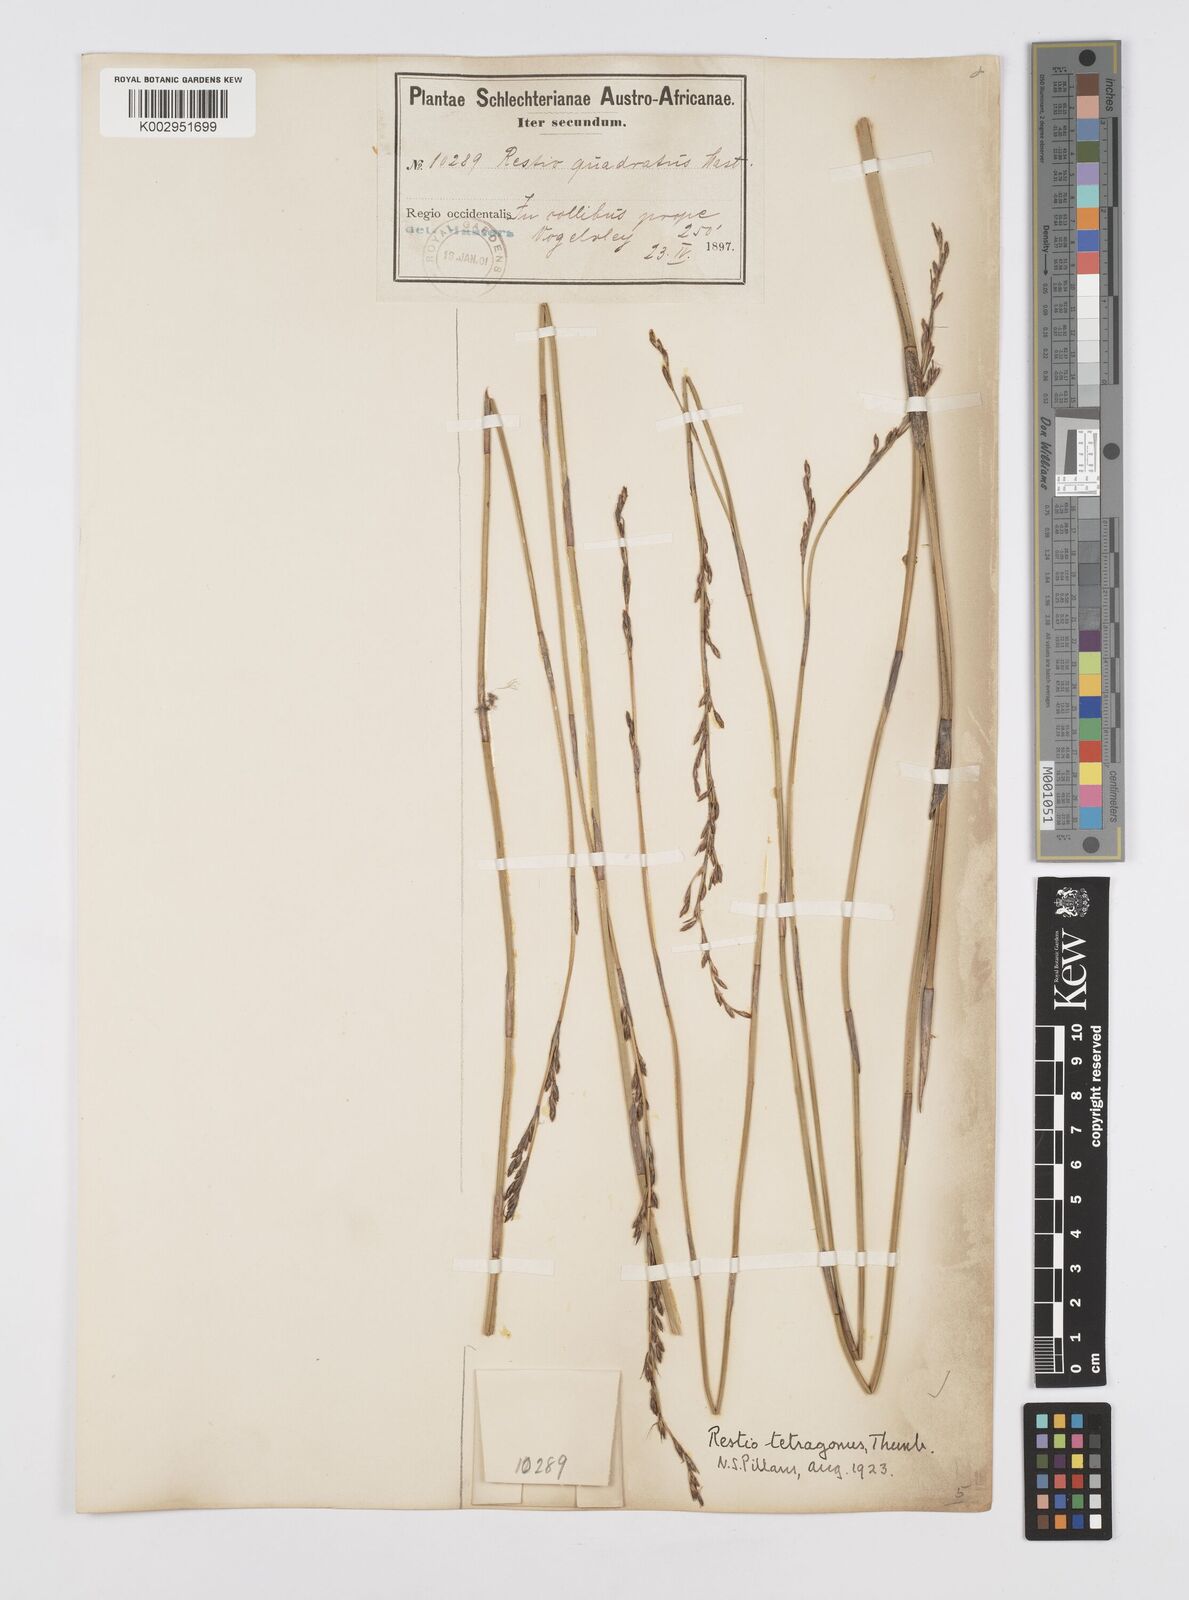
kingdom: Plantae
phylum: Tracheophyta
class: Liliopsida
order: Poales
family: Restionaceae
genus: Restio
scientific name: Restio tetragonus
